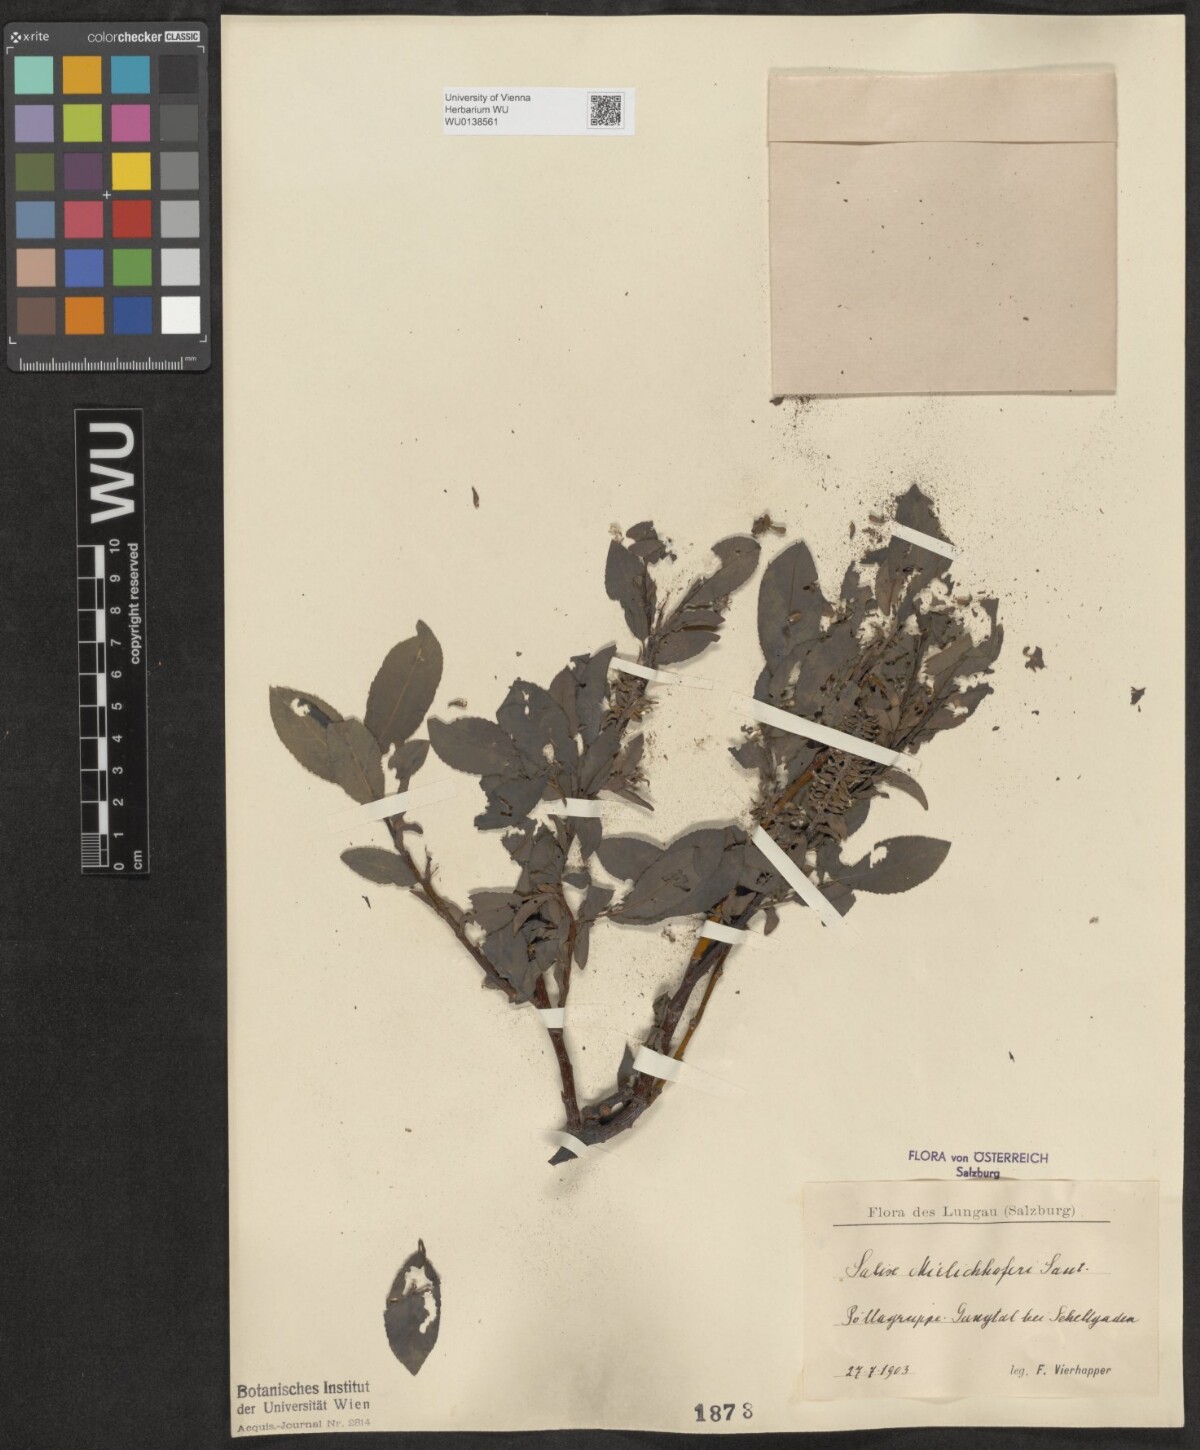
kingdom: Plantae
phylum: Tracheophyta
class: Magnoliopsida
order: Malpighiales
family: Salicaceae
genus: Salix
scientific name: Salix mielichhoferi
